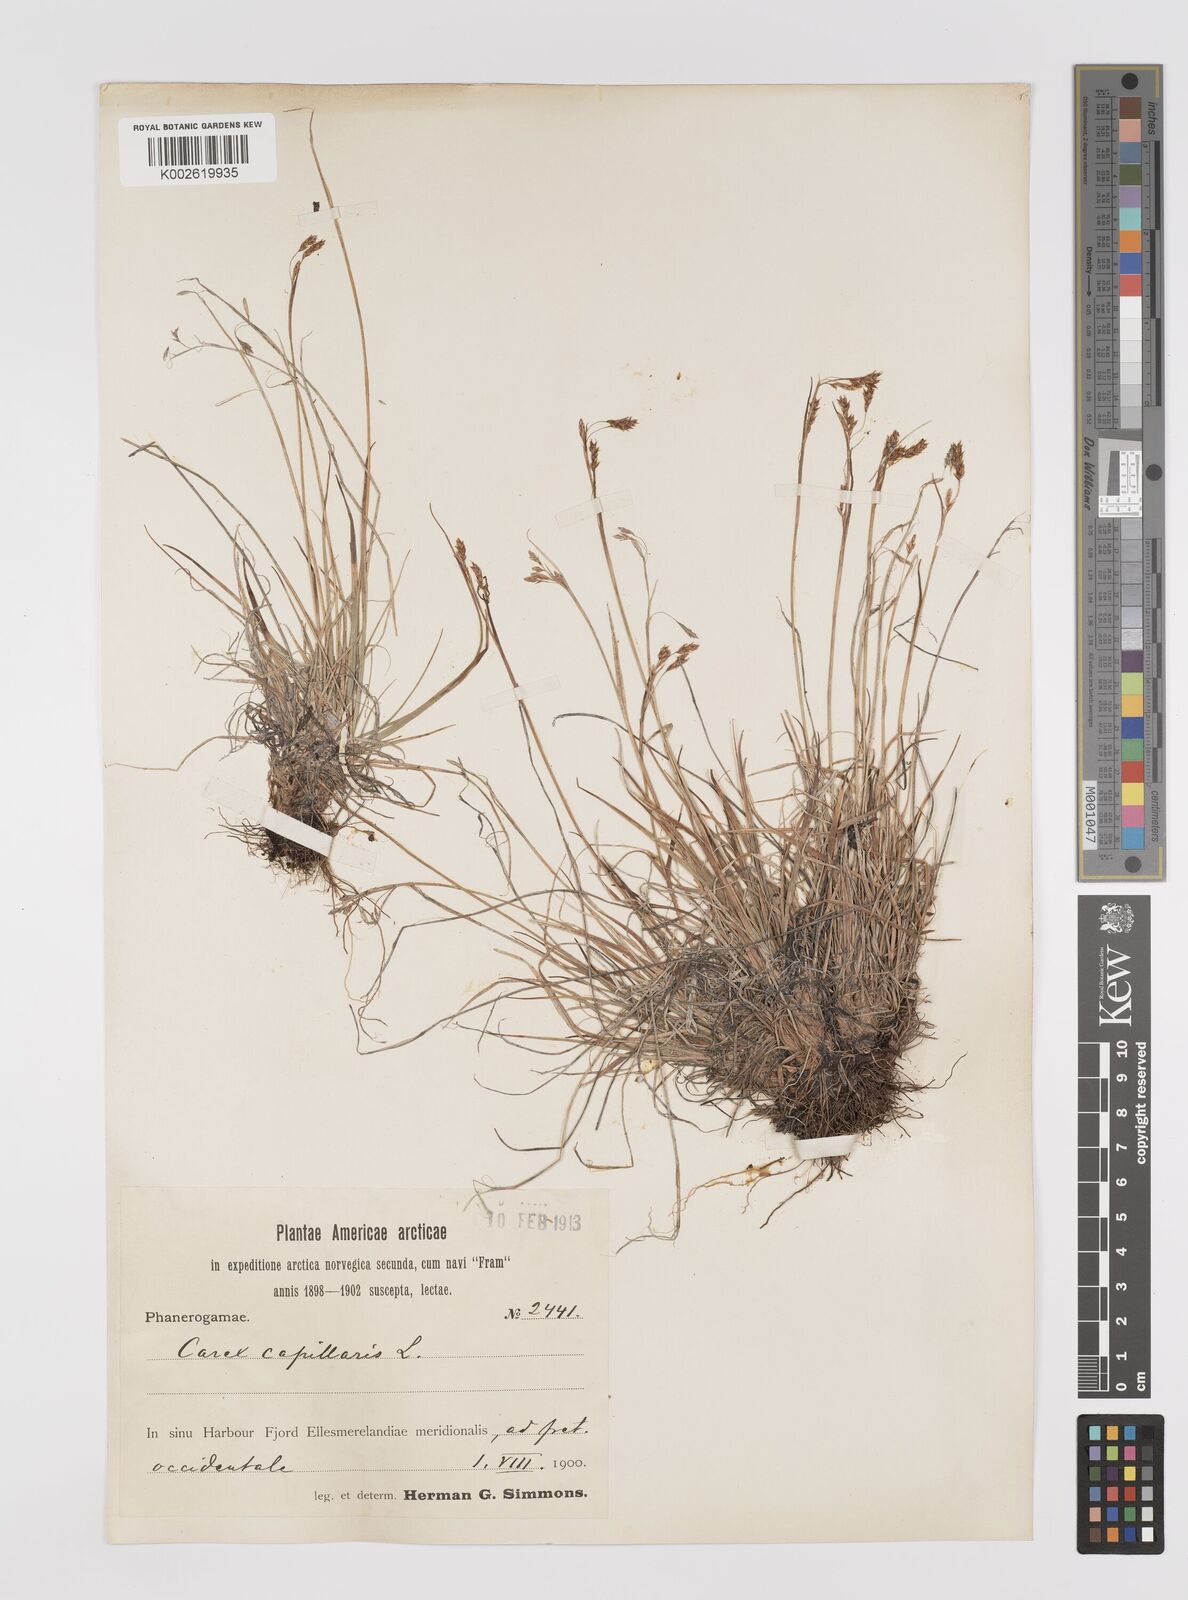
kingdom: Plantae
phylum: Tracheophyta
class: Liliopsida
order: Poales
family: Cyperaceae
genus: Carex
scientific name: Carex capillaris
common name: Hair sedge
